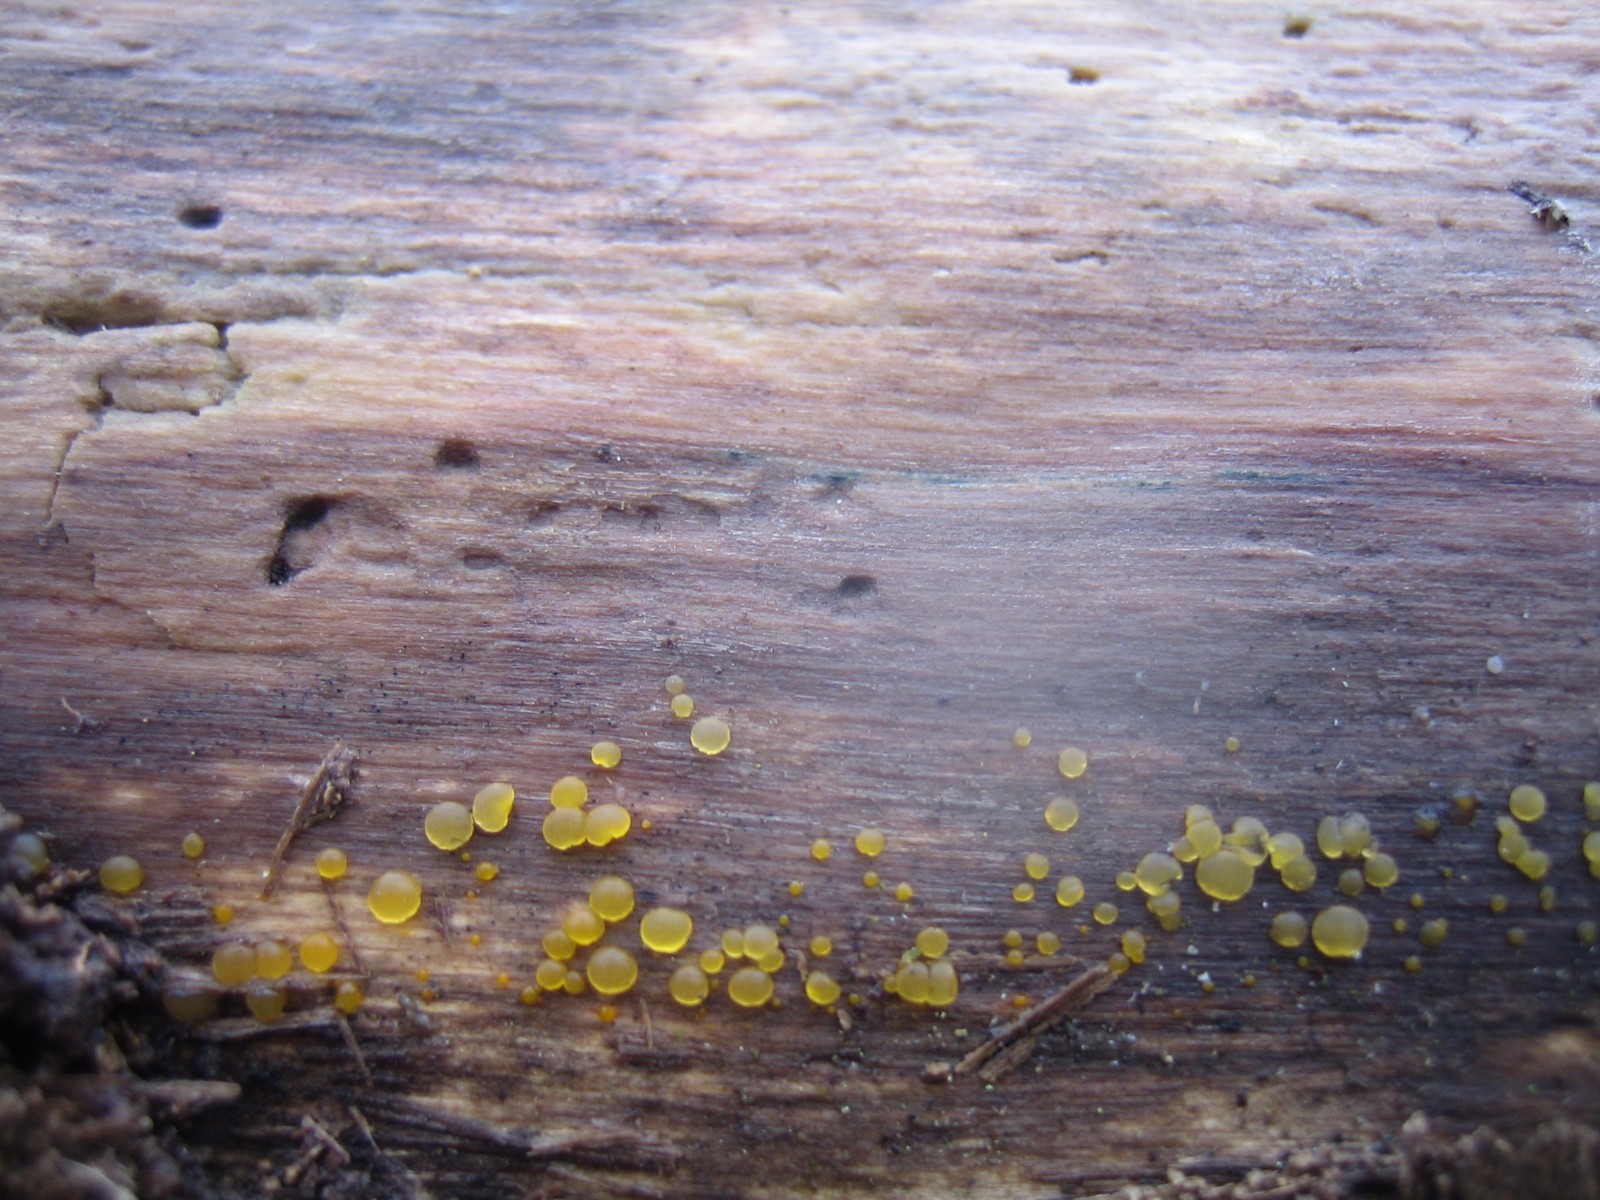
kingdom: Fungi
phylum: Basidiomycota
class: Dacrymycetes
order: Dacrymycetales
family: Dacrymycetaceae
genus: Dacrymyces
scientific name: Dacrymyces
